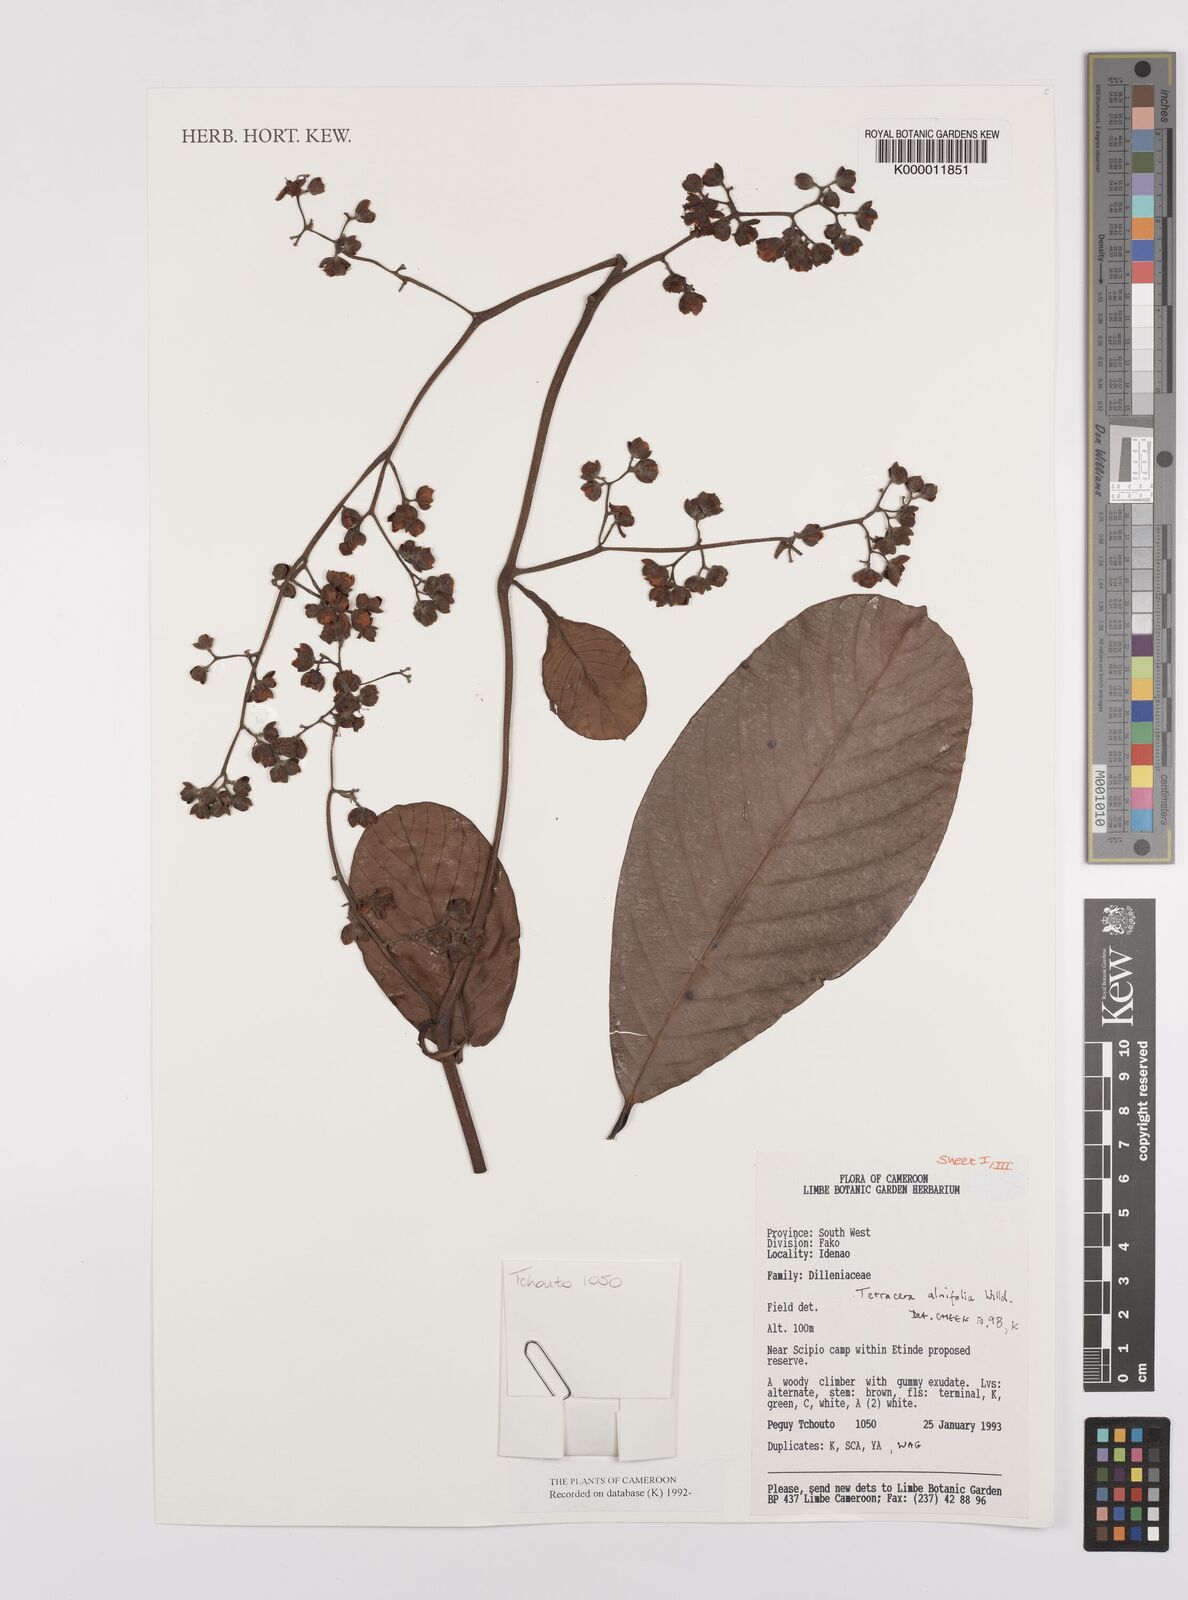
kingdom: Plantae
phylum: Tracheophyta
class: Magnoliopsida
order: Dilleniales
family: Dilleniaceae
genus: Tetracera
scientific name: Tetracera alnifolia
